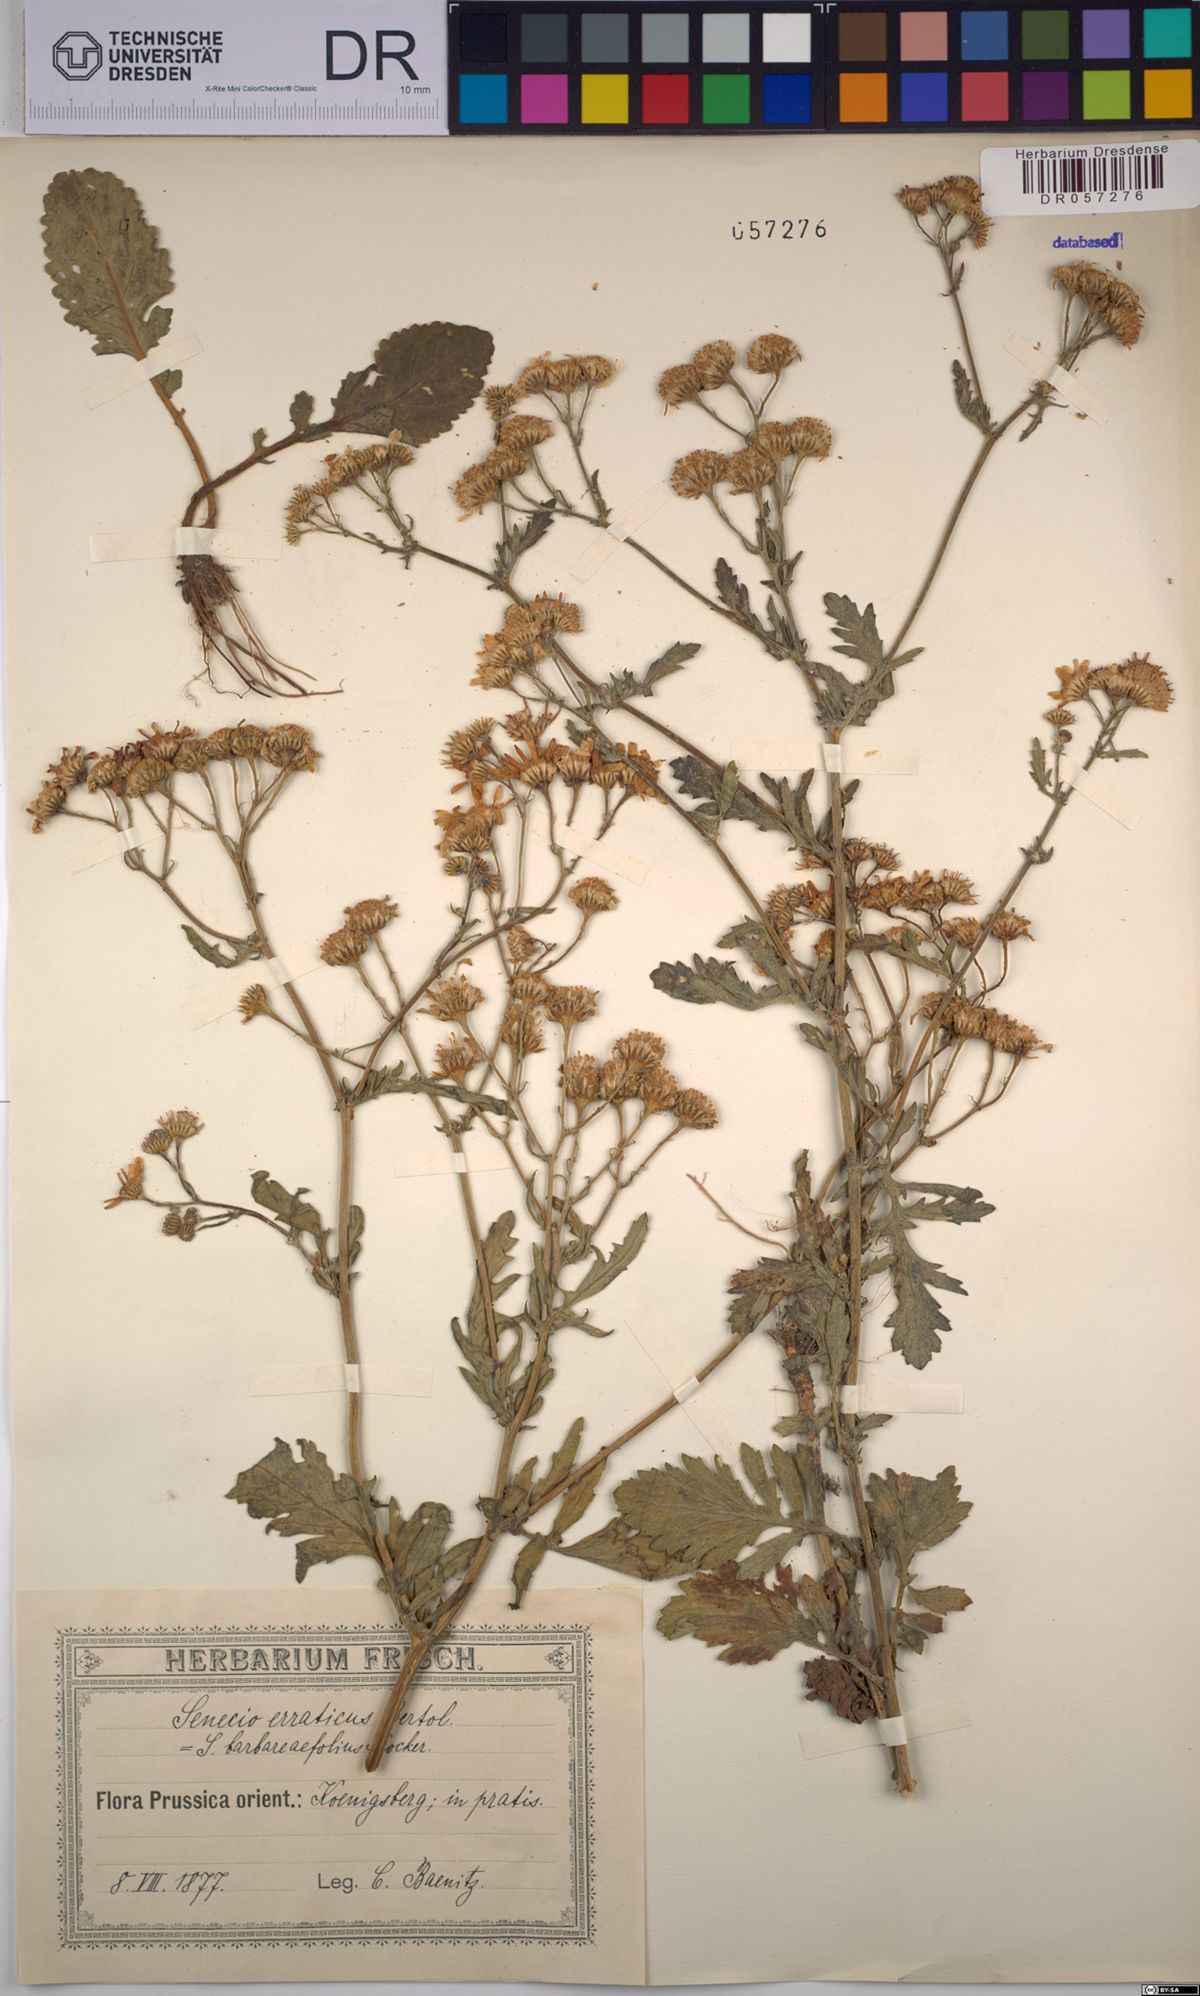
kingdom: Plantae
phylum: Tracheophyta
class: Magnoliopsida
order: Asterales
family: Asteraceae
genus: Jacobaea
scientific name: Jacobaea erratica
